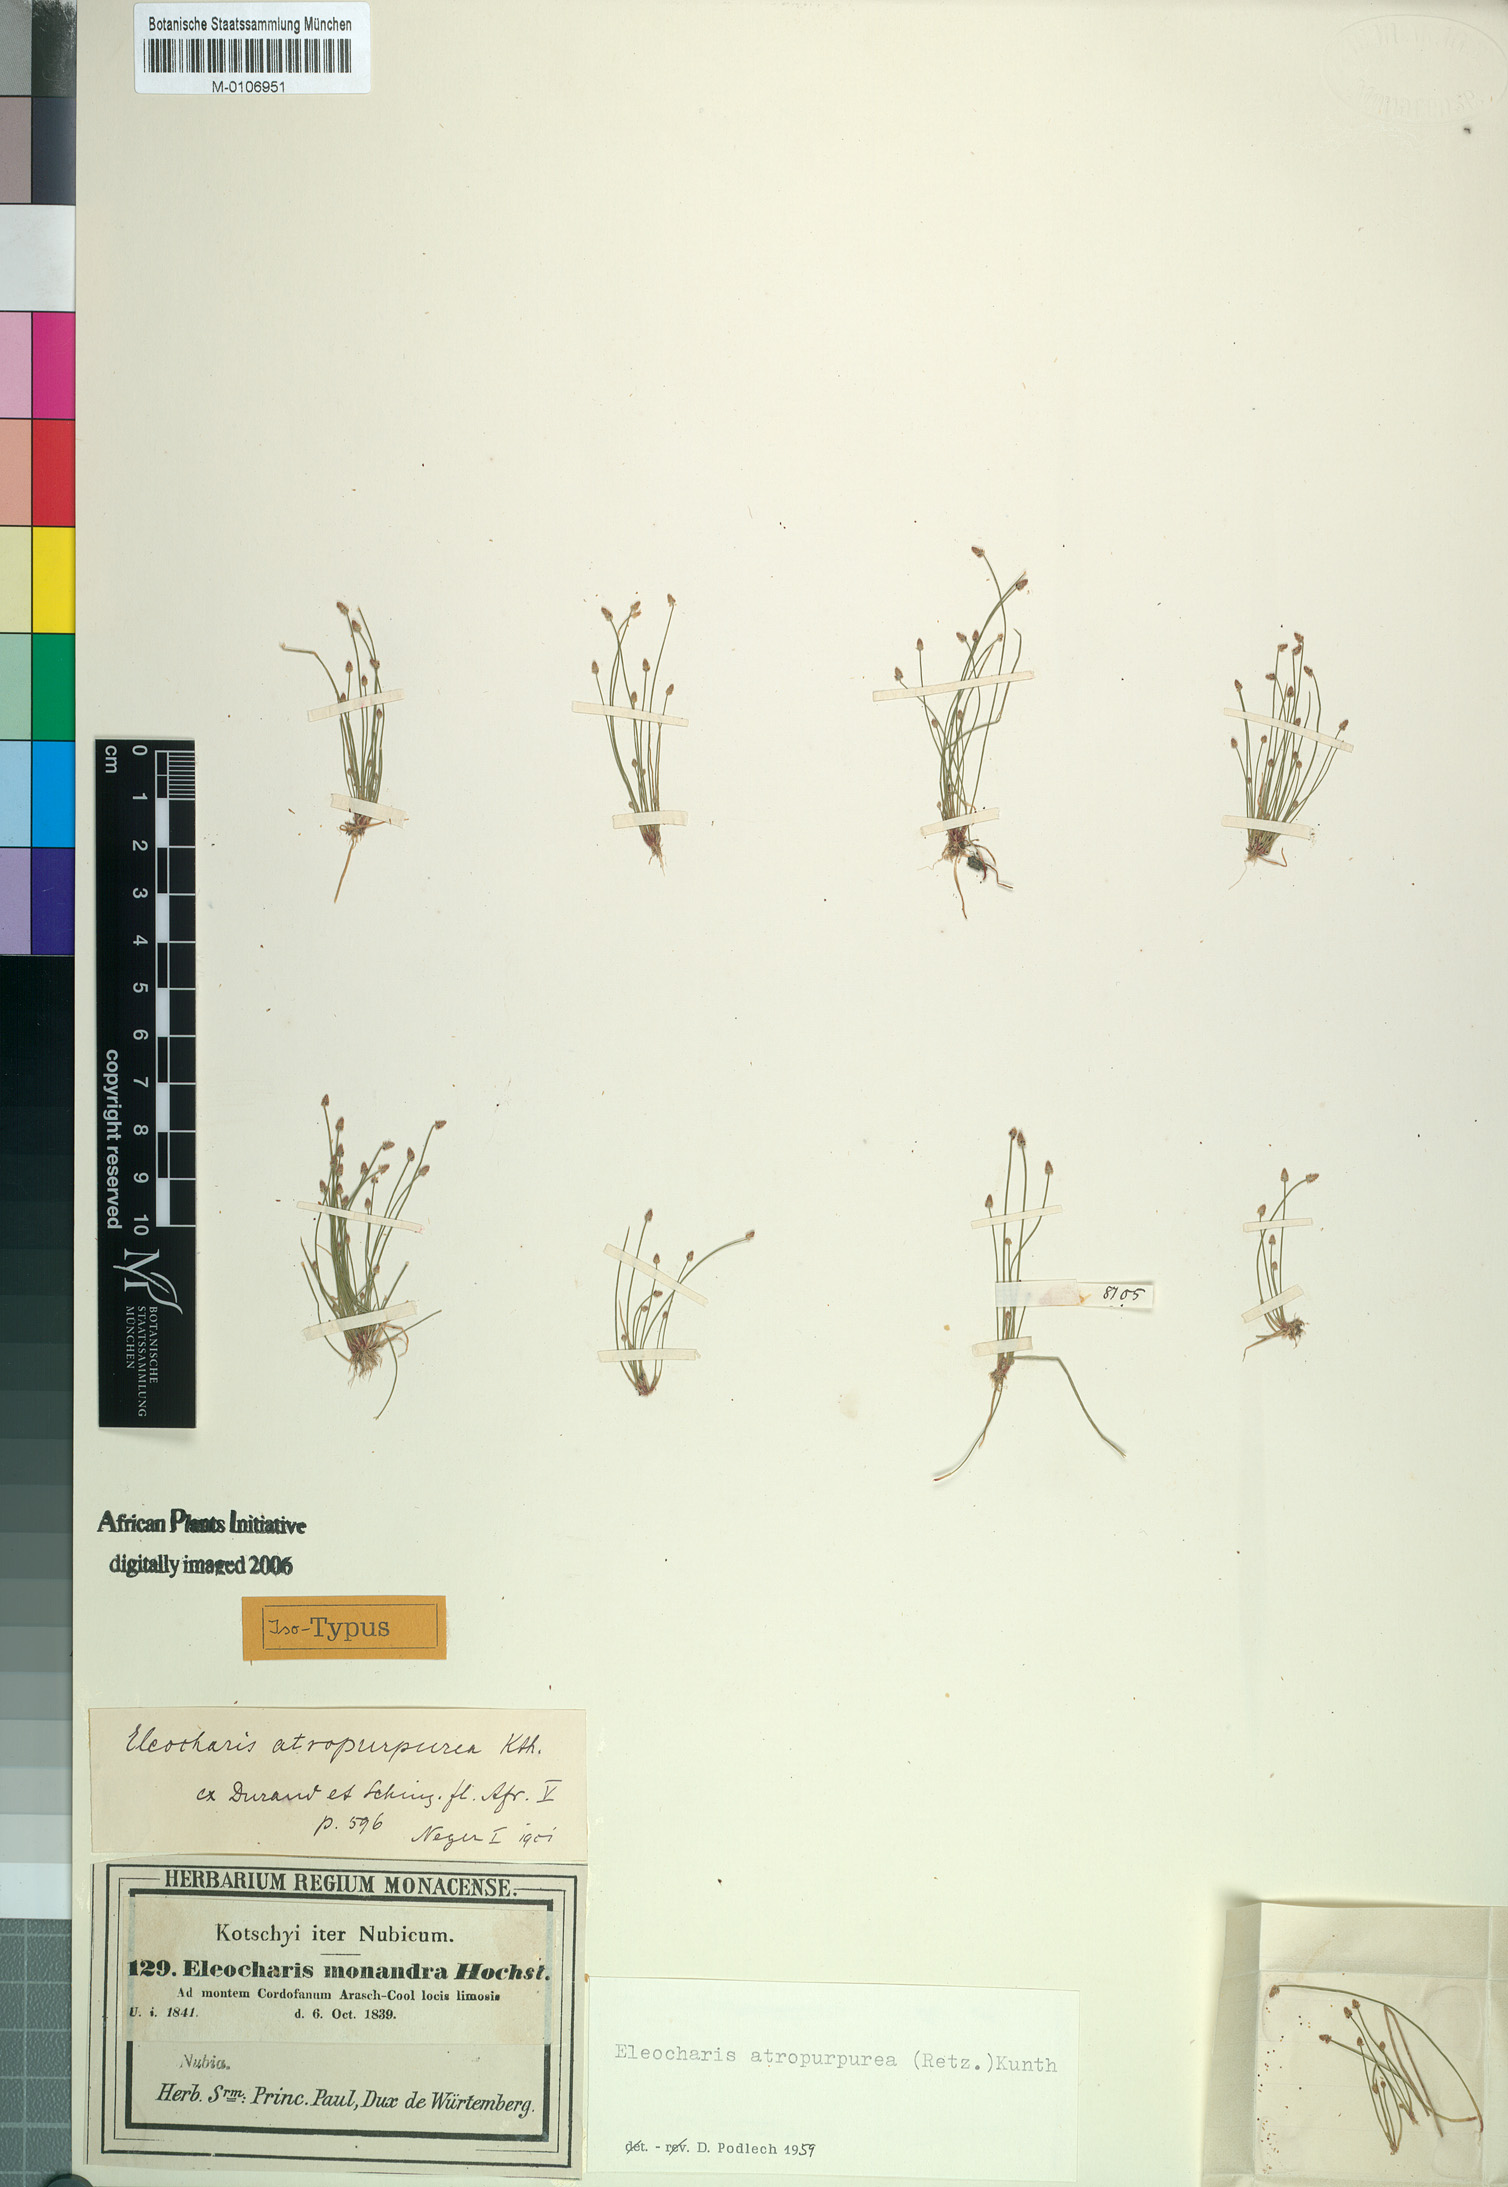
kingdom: Plantae
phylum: Tracheophyta
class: Liliopsida
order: Poales
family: Cyperaceae
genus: Eleocharis
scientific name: Eleocharis atropurpurea
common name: Purple spikerush
